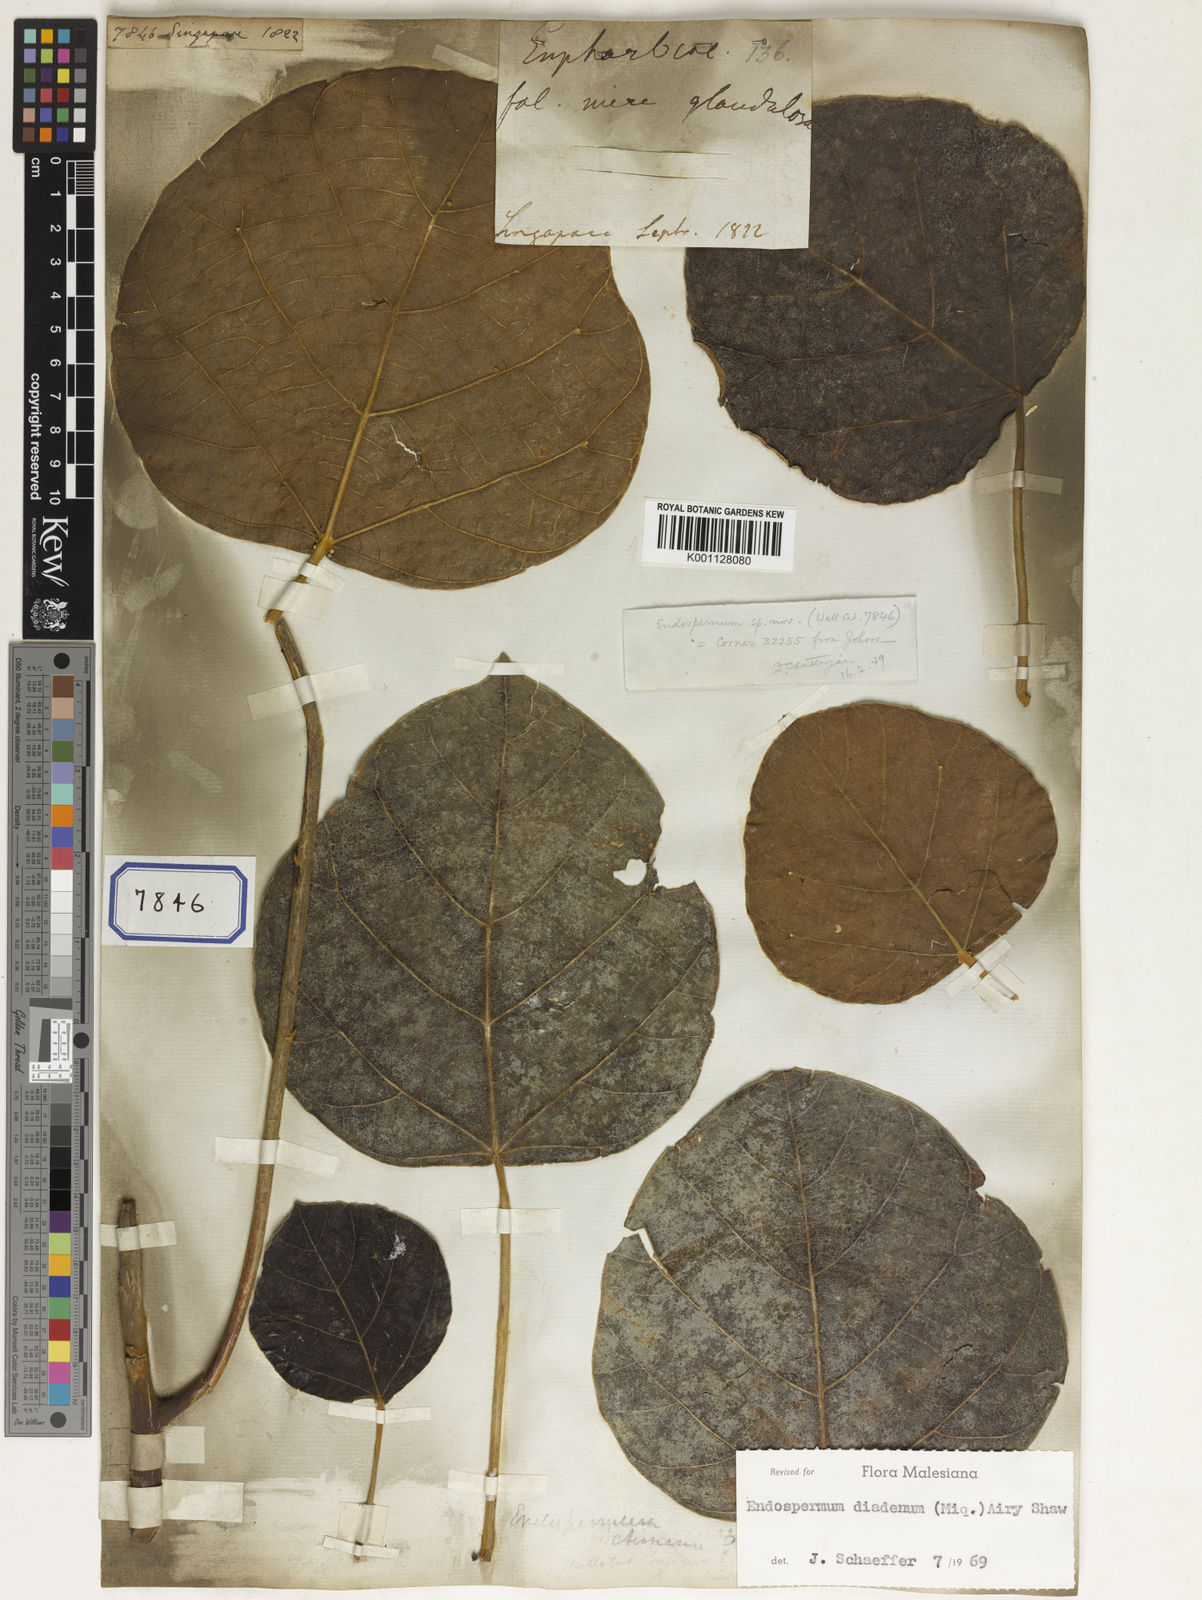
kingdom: Plantae
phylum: Tracheophyta
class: Magnoliopsida
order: Malpighiales
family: Euphorbiaceae
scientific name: Euphorbiaceae
